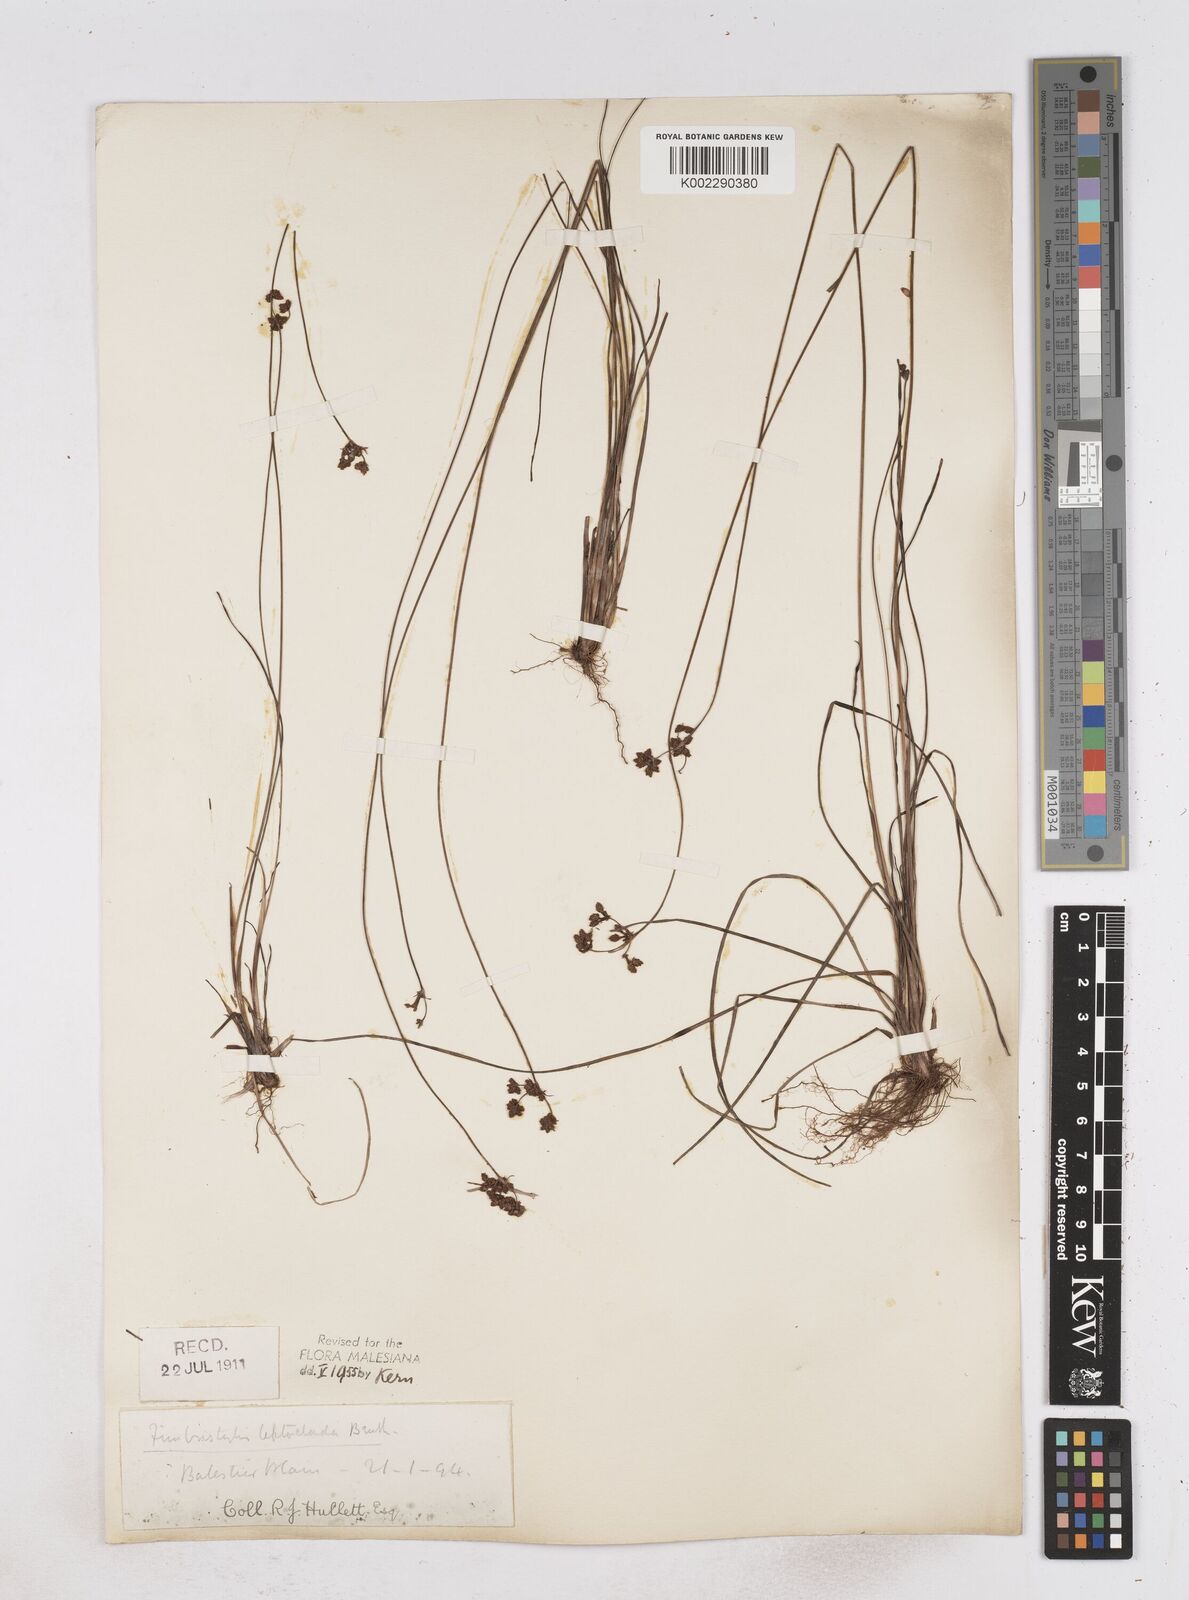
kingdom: Plantae
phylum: Tracheophyta
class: Liliopsida
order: Poales
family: Cyperaceae
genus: Fimbristylis
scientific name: Fimbristylis leptoclada
